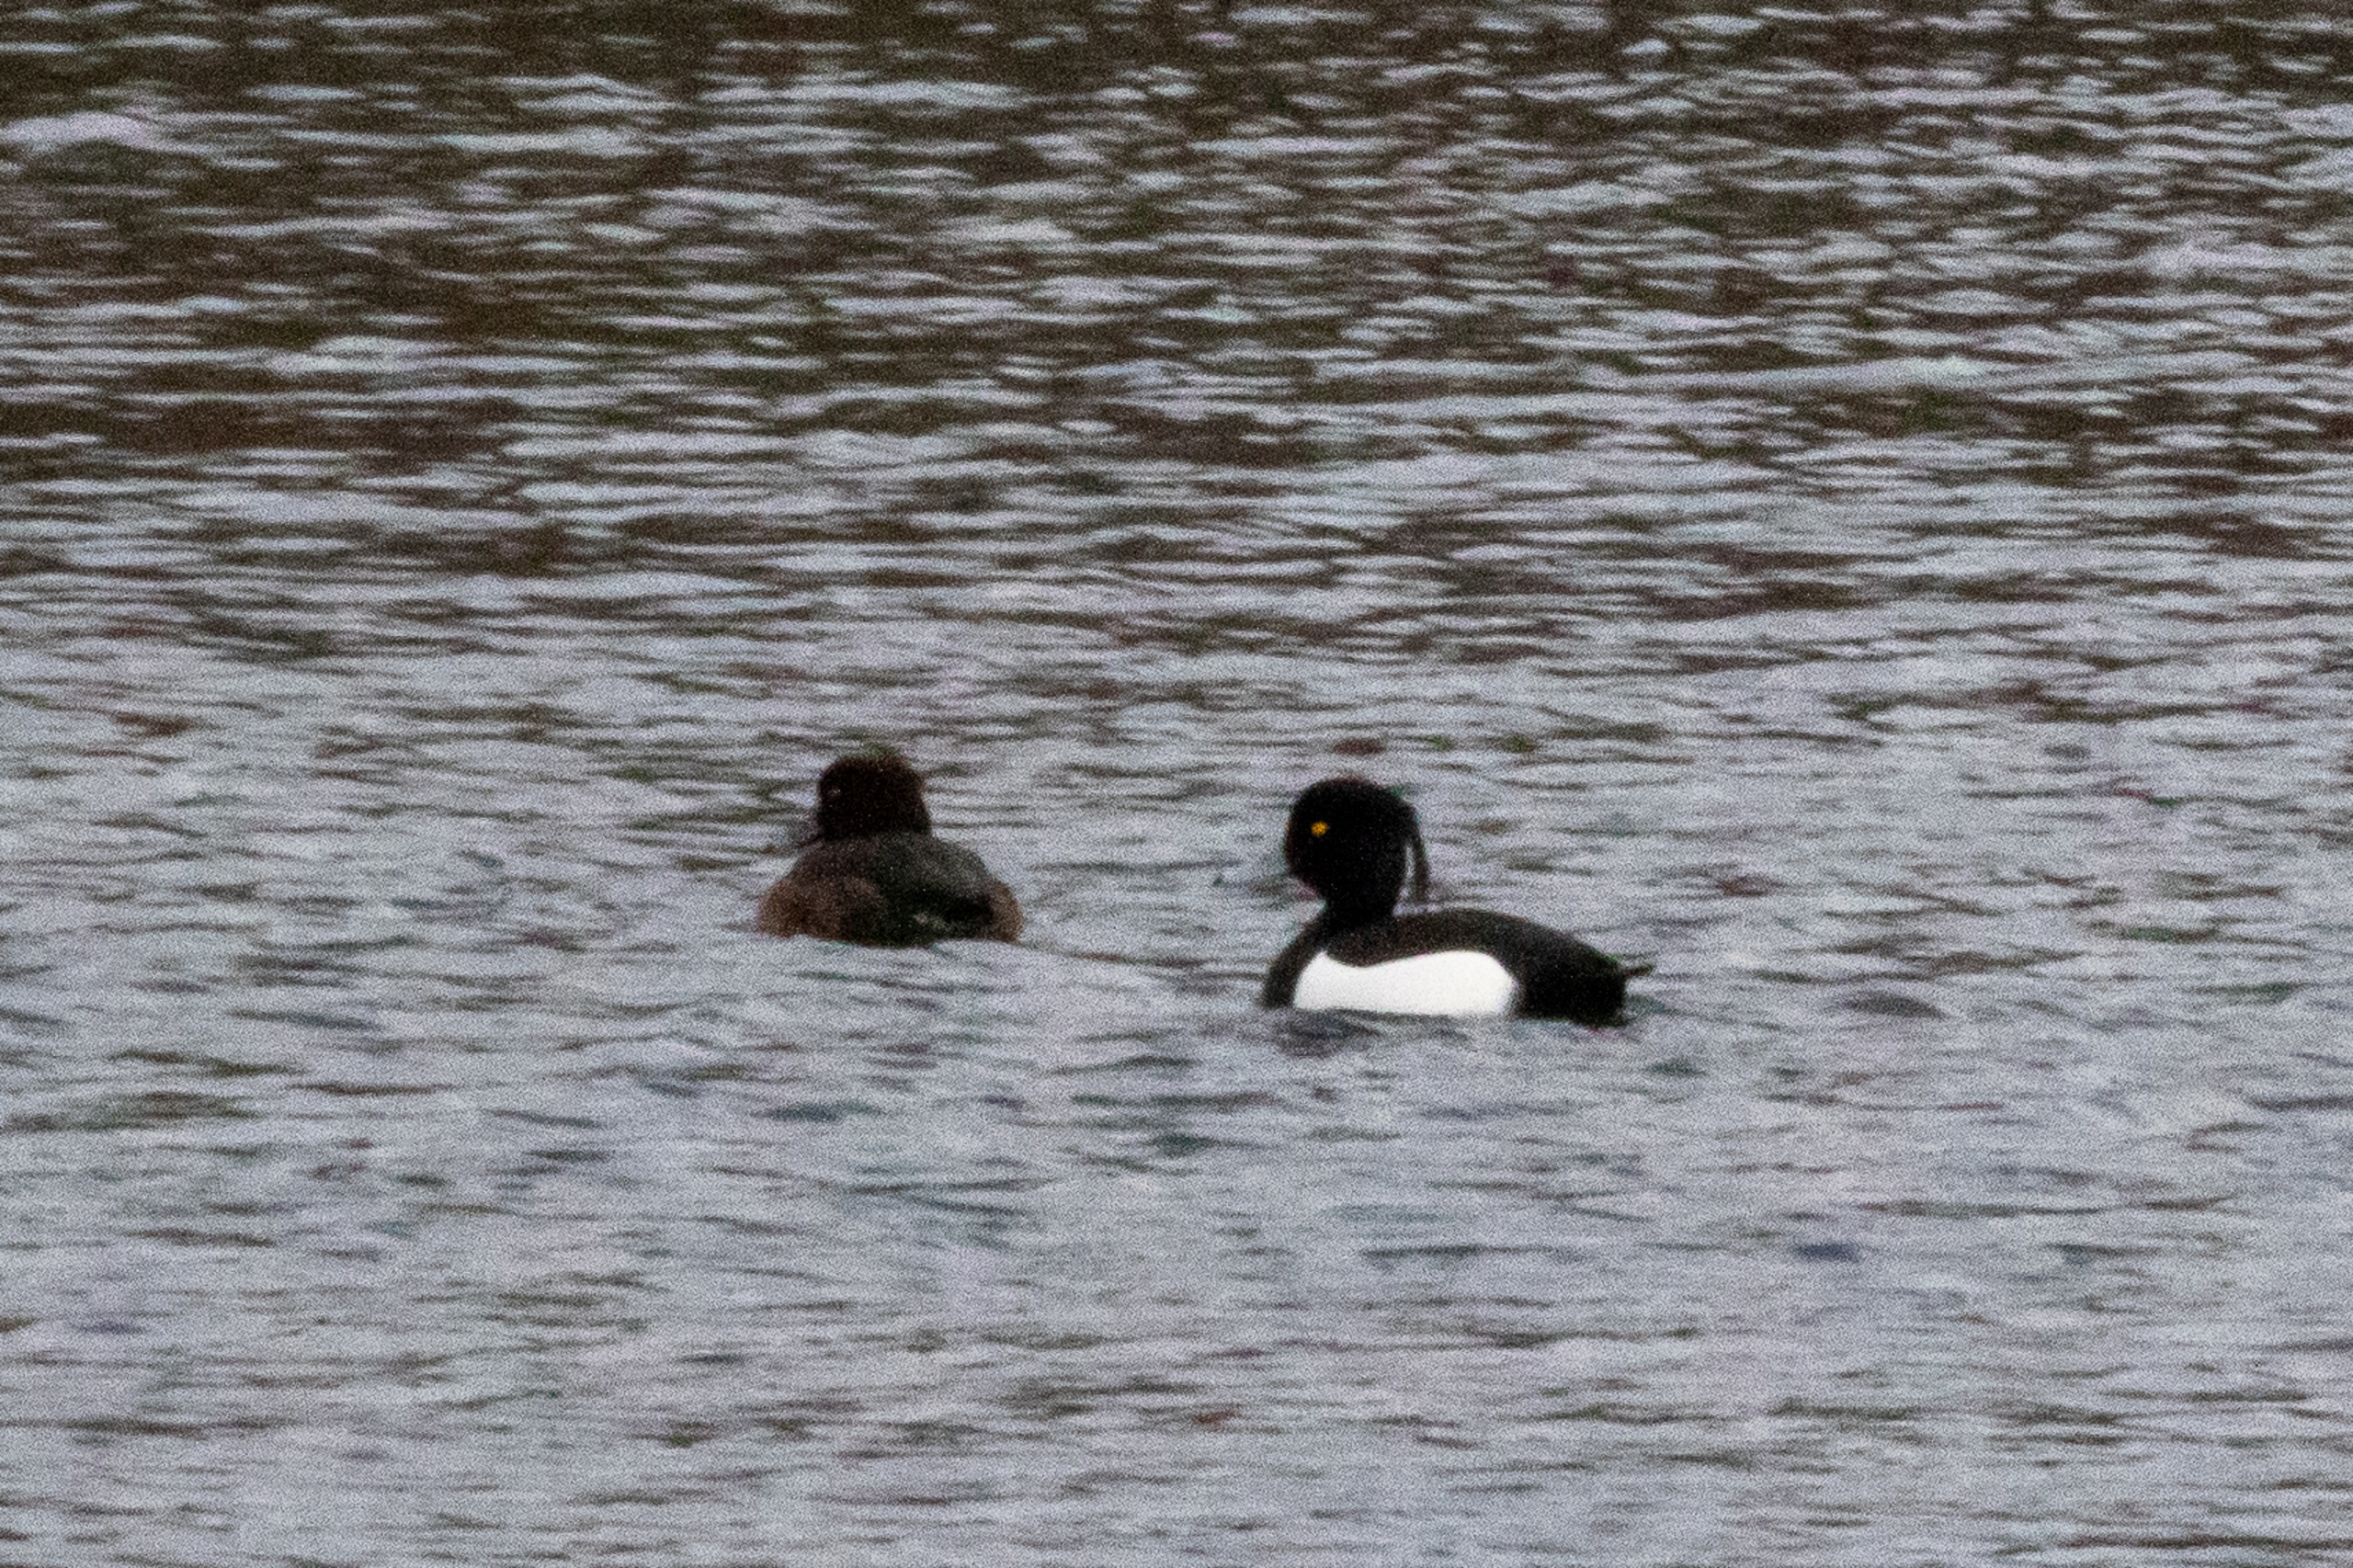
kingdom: Animalia
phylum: Chordata
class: Aves
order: Anseriformes
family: Anatidae
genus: Aythya
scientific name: Aythya fuligula
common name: Troldand
